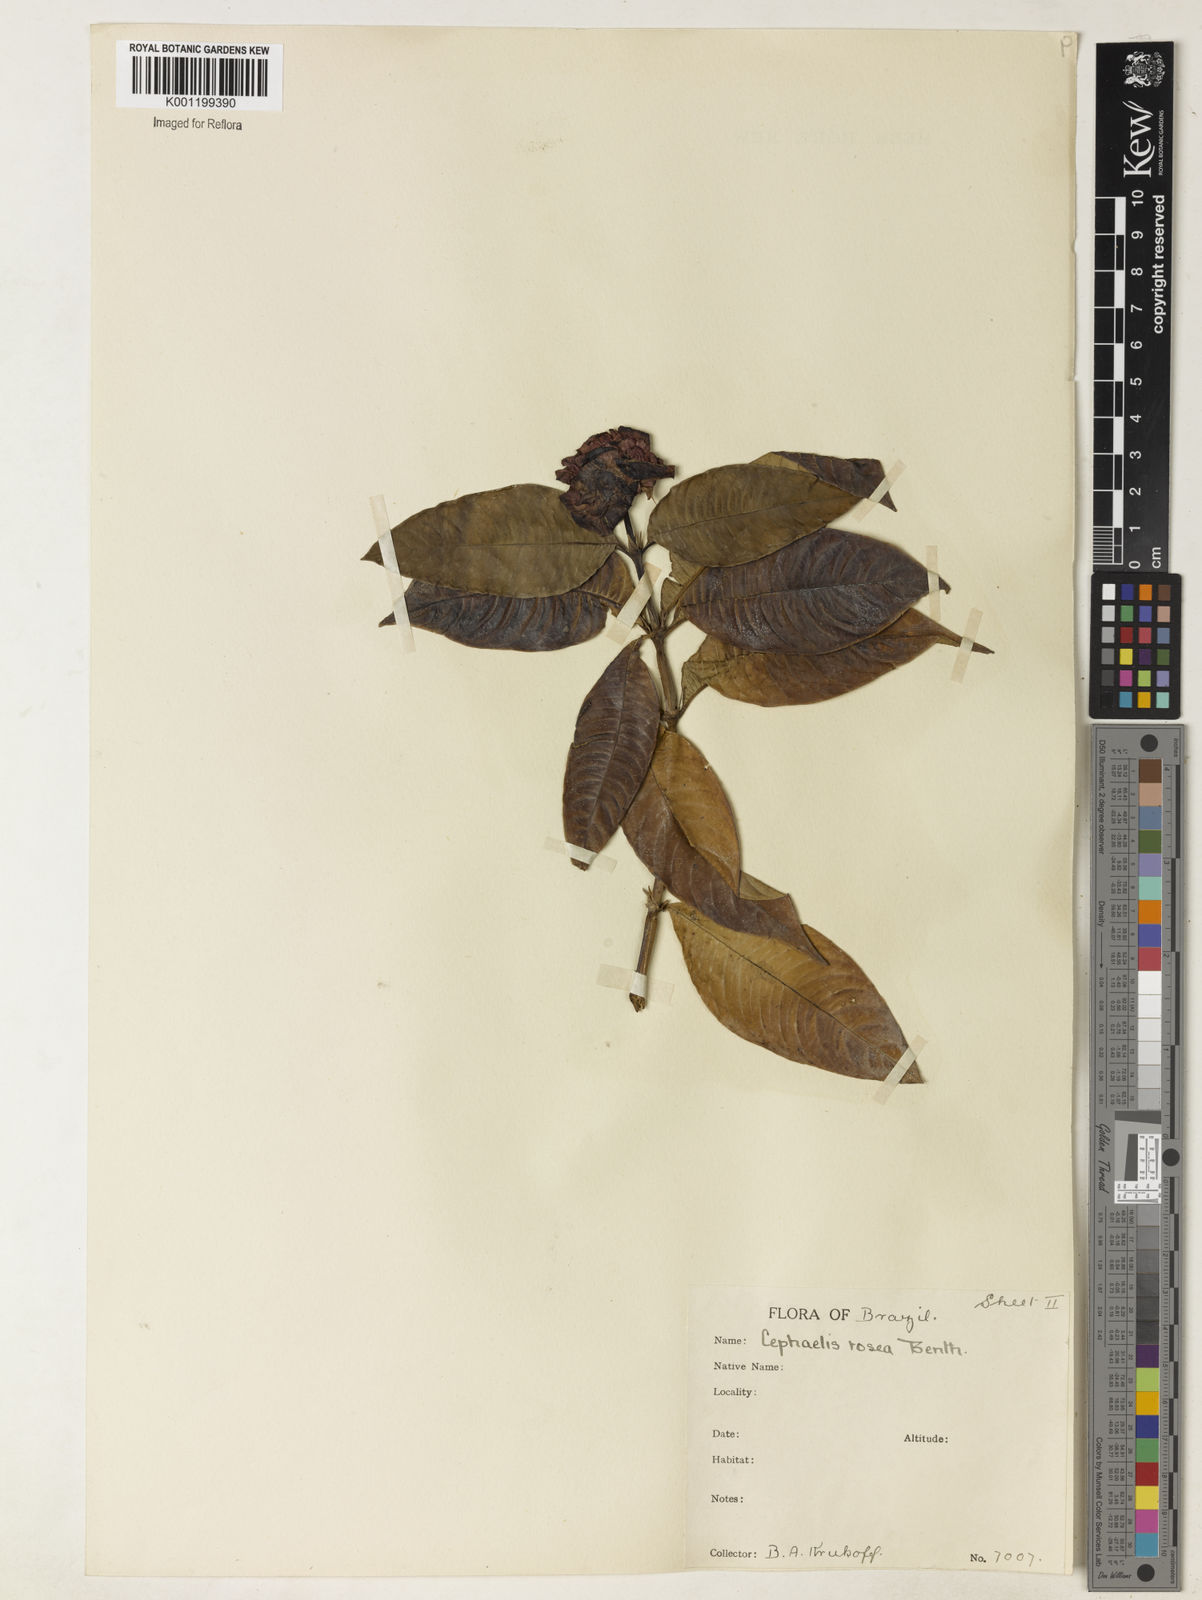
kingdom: Plantae
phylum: Tracheophyta
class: Magnoliopsida
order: Gentianales
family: Rubiaceae
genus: Psychotria
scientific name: Psychotria
